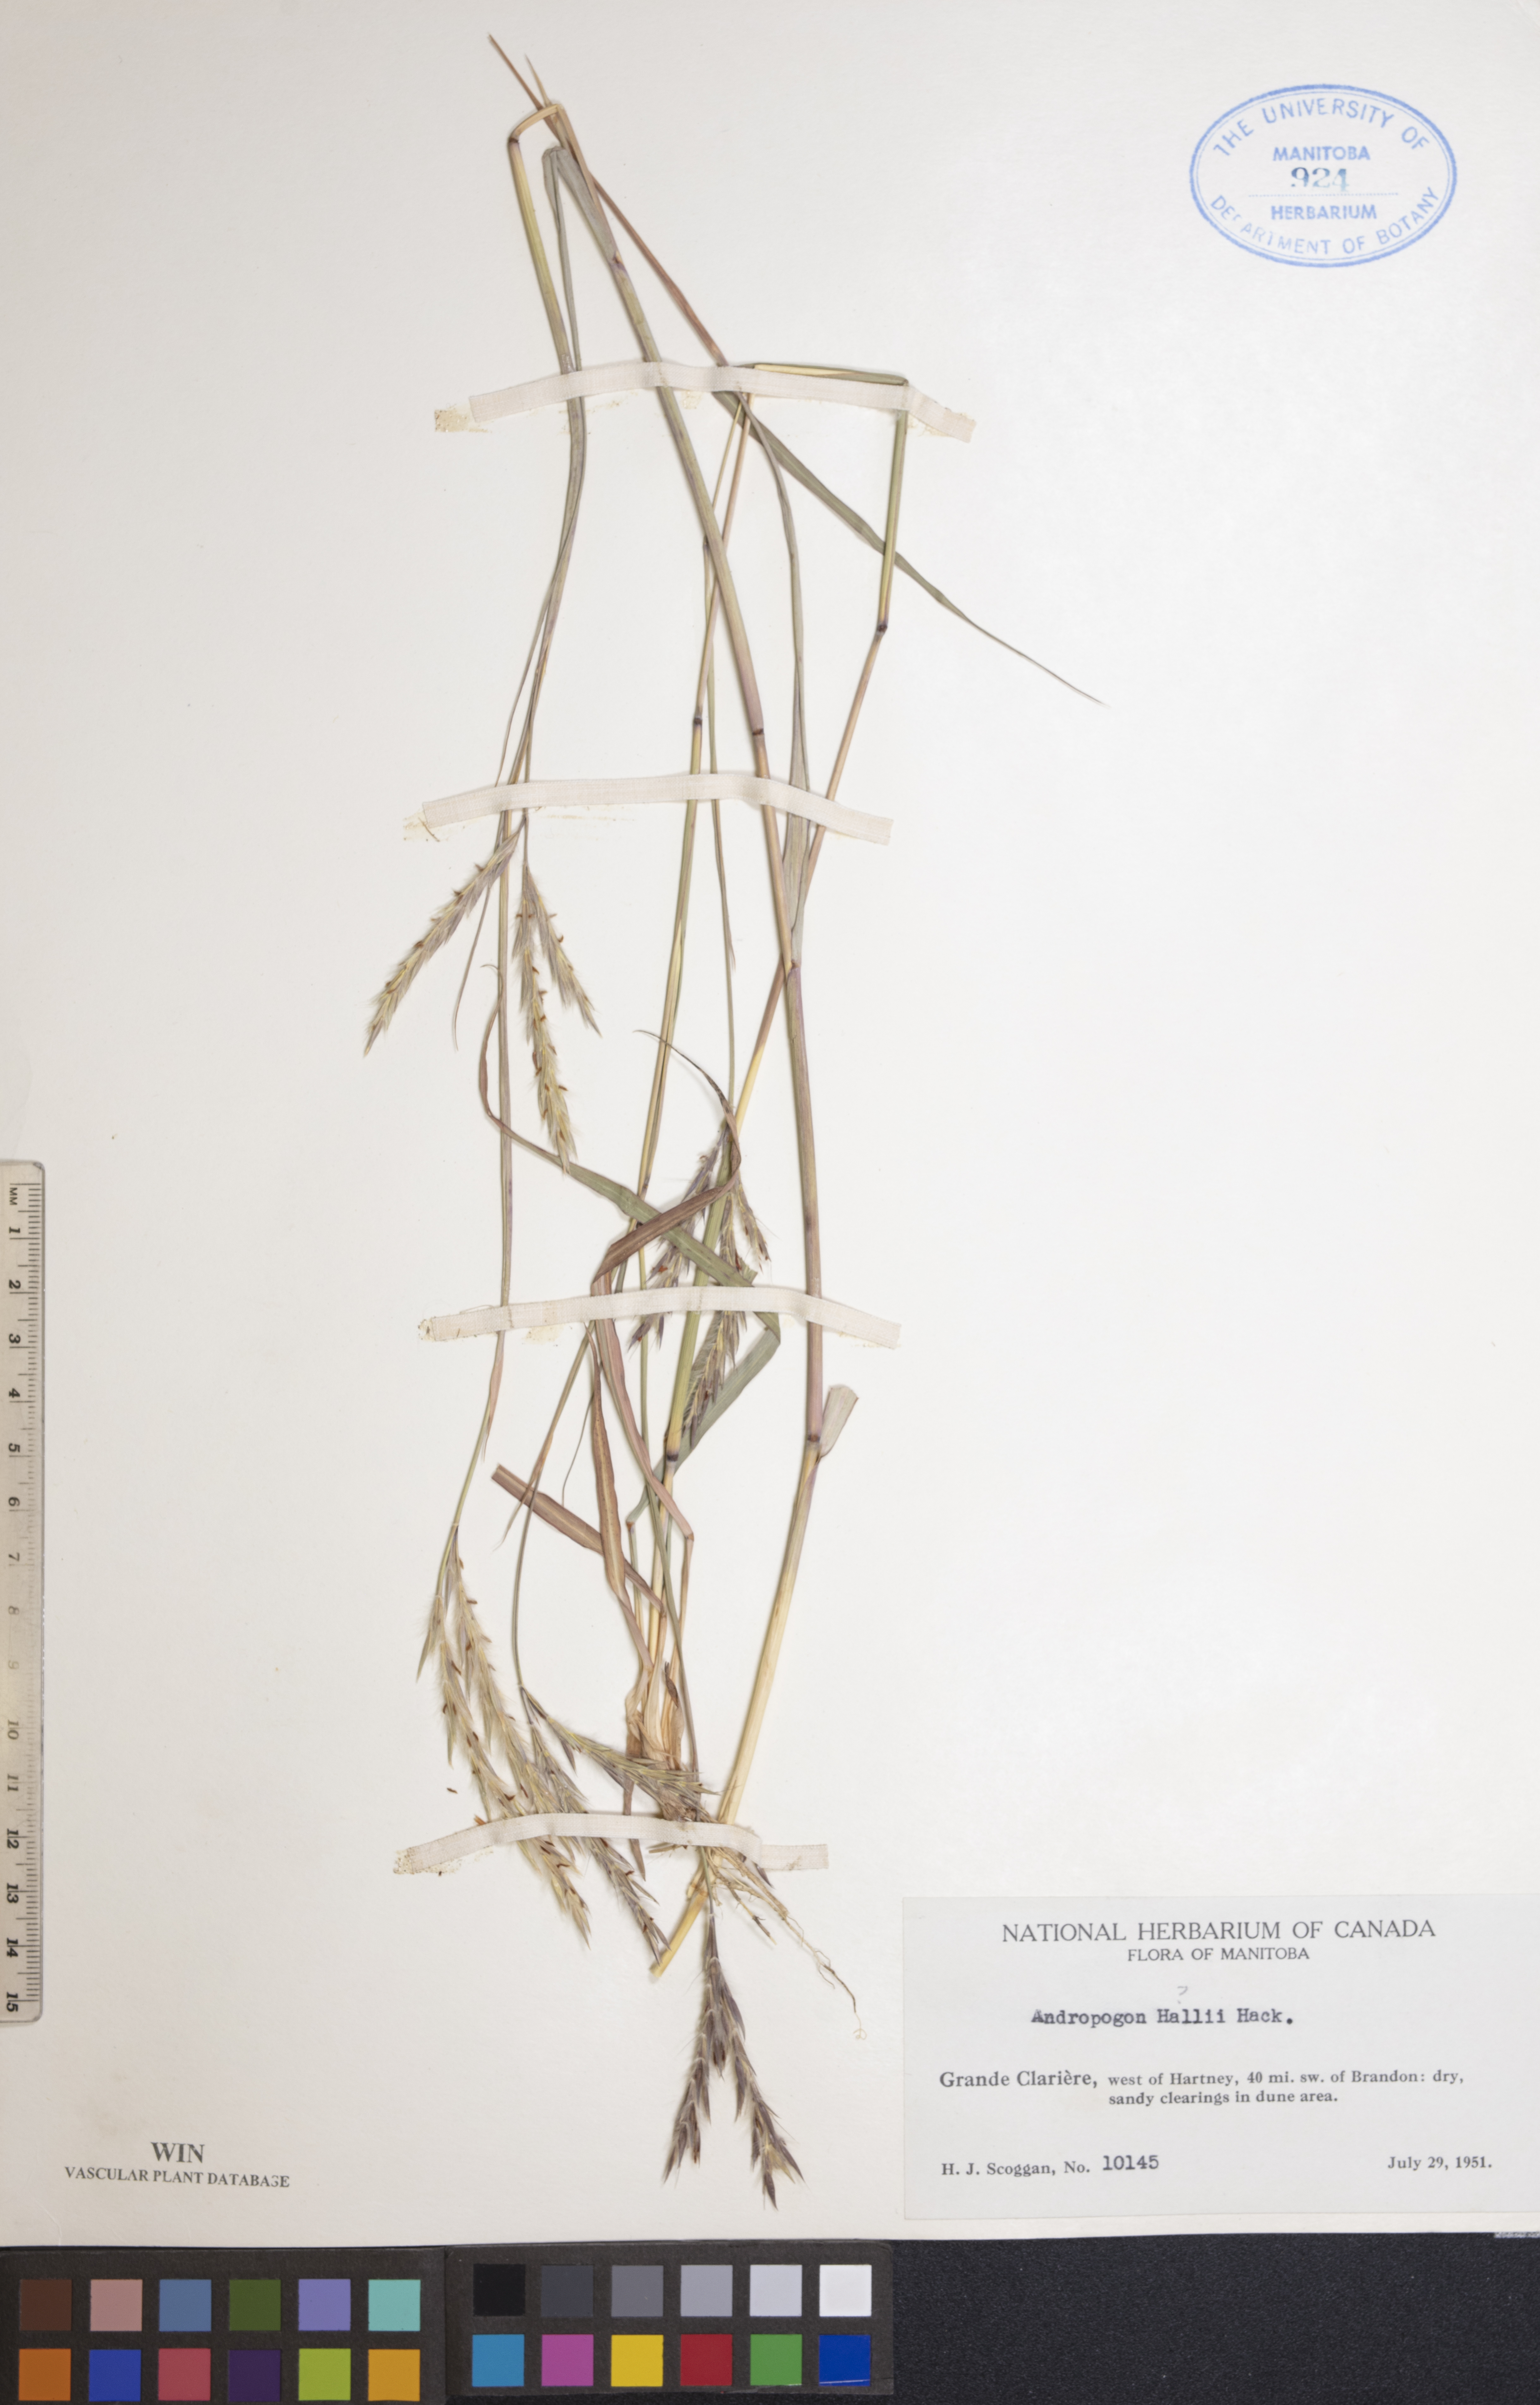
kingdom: Plantae
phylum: Tracheophyta
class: Liliopsida
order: Poales
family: Poaceae
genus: Andropogon
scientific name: Andropogon hallii
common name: Sand bluestem
